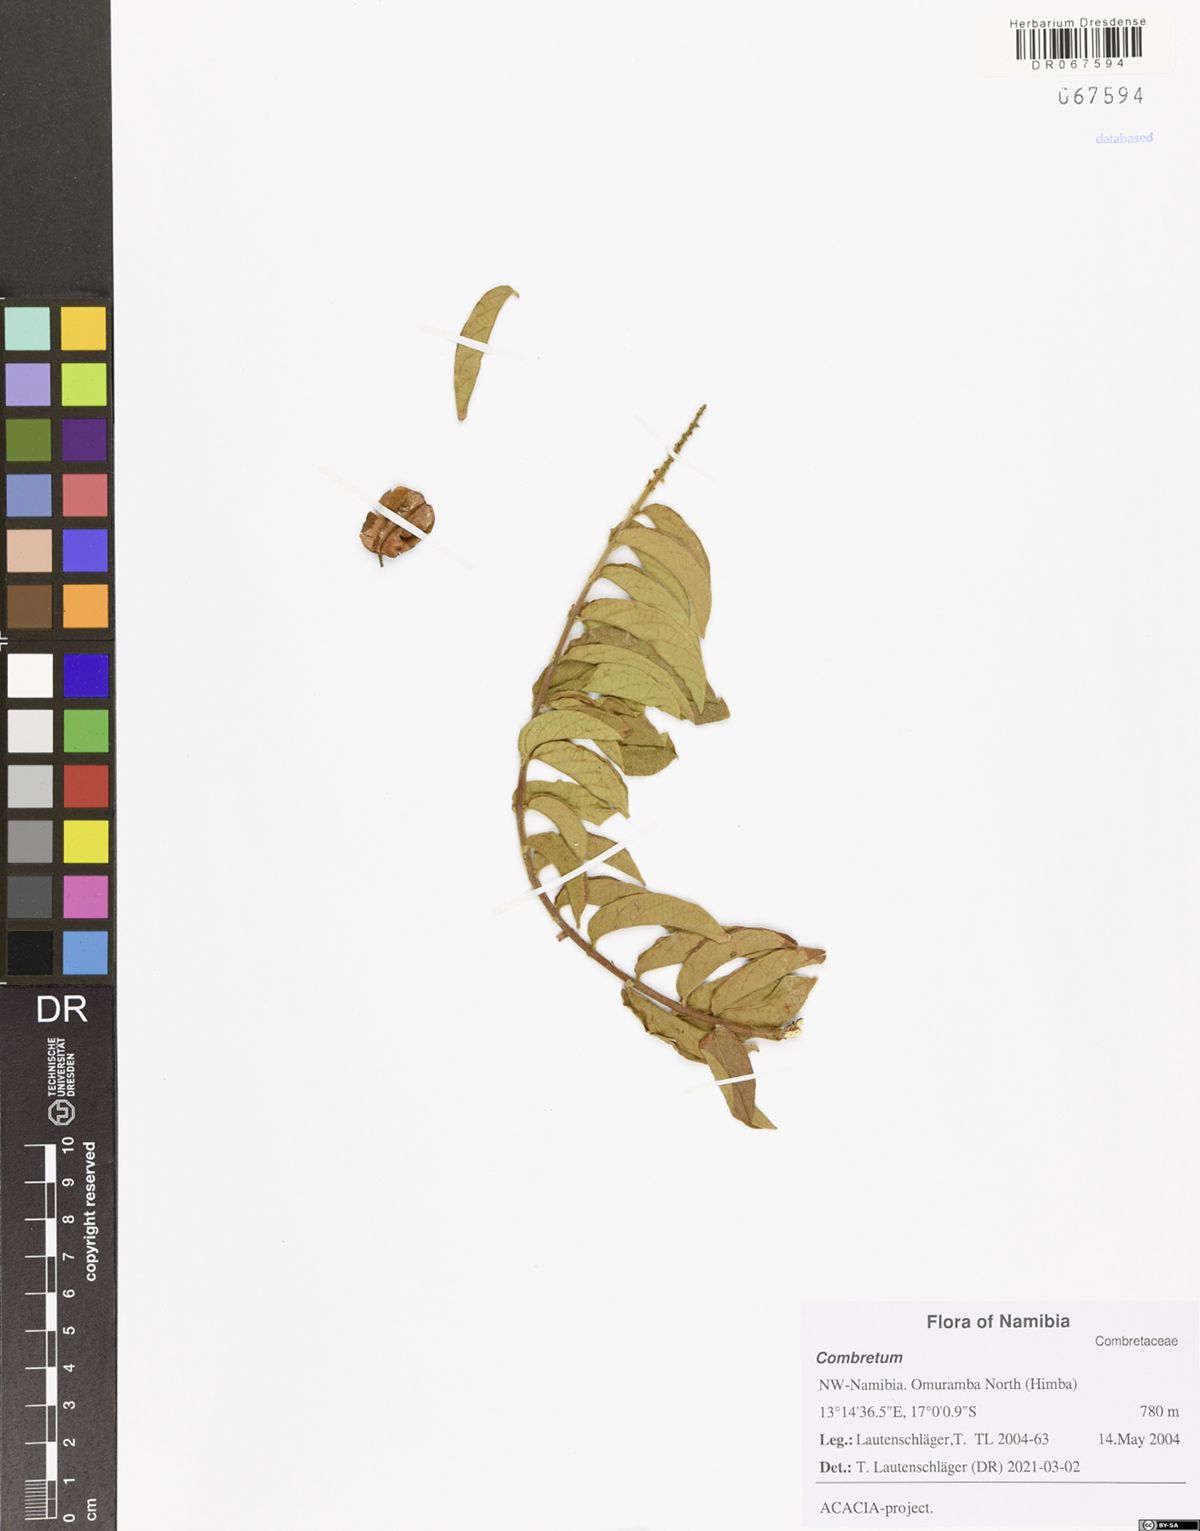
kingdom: Plantae
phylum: Tracheophyta
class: Magnoliopsida
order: Myrtales
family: Combretaceae
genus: Combretum
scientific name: Combretum
